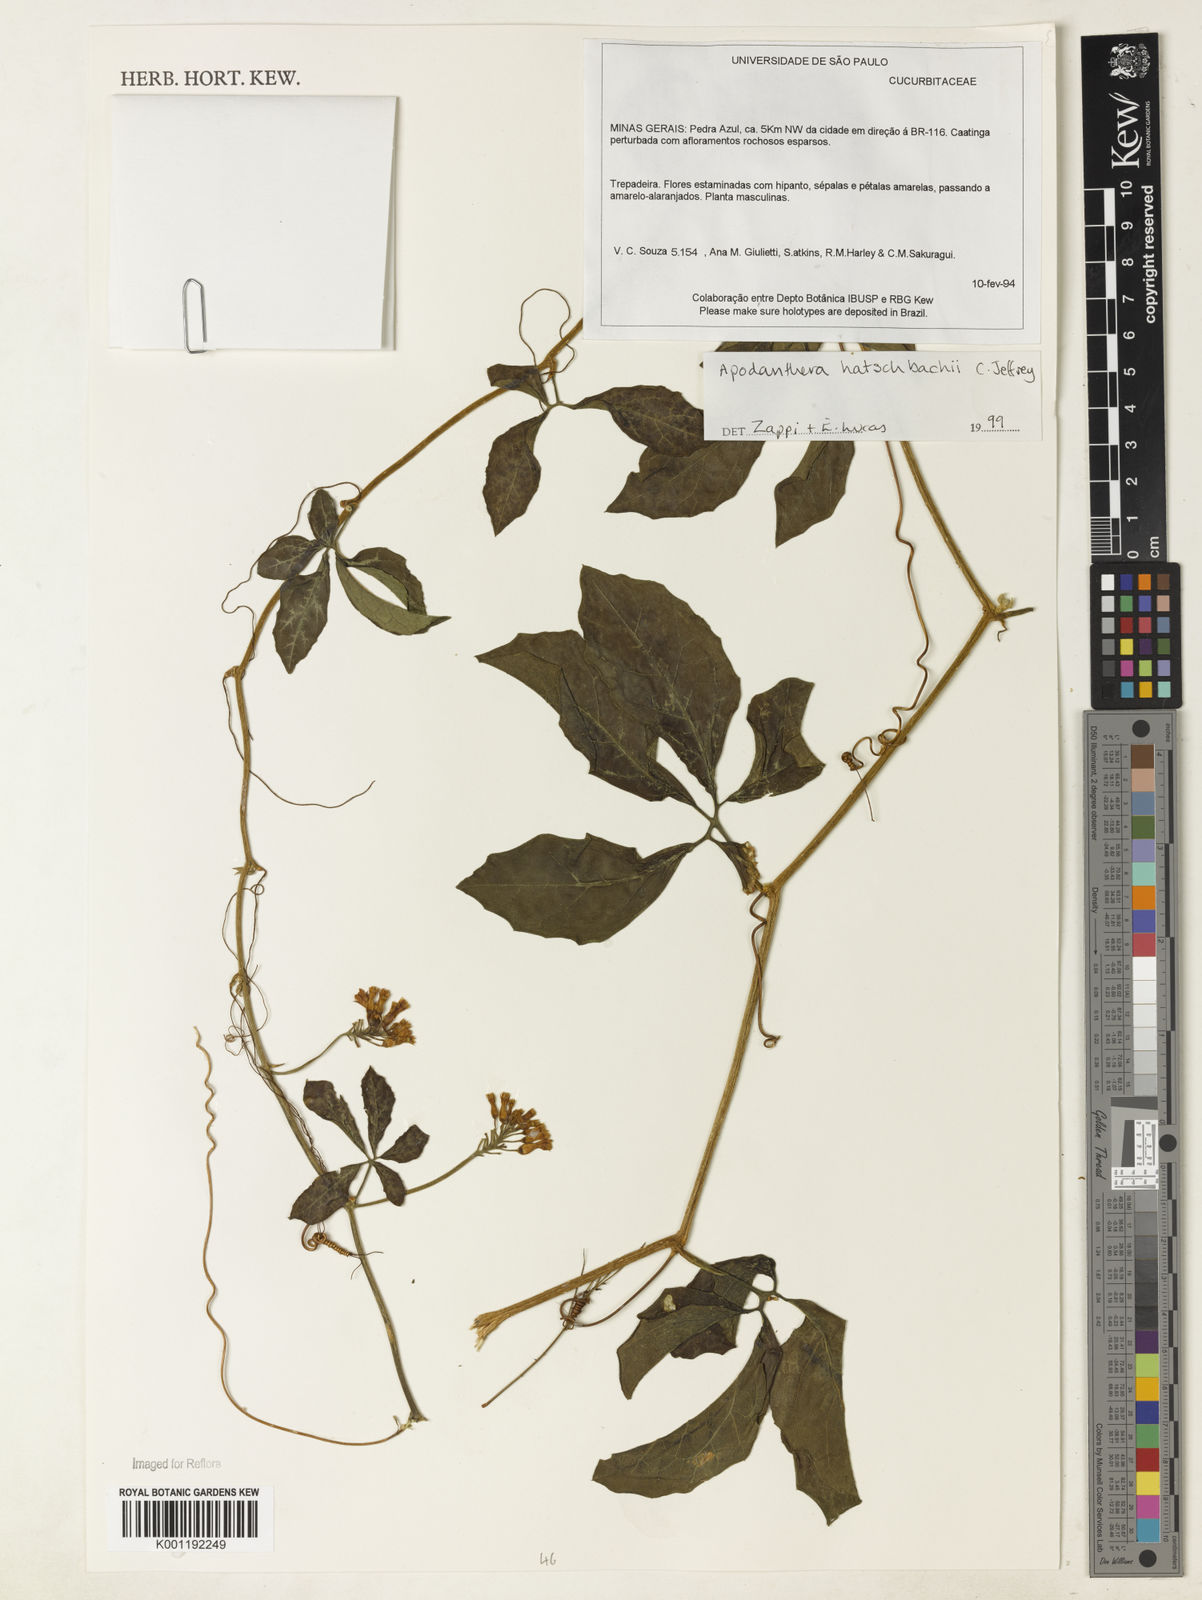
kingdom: Plantae
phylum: Tracheophyta
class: Magnoliopsida
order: Cucurbitales
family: Cucurbitaceae
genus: Apodanthera
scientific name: Apodanthera bradei
